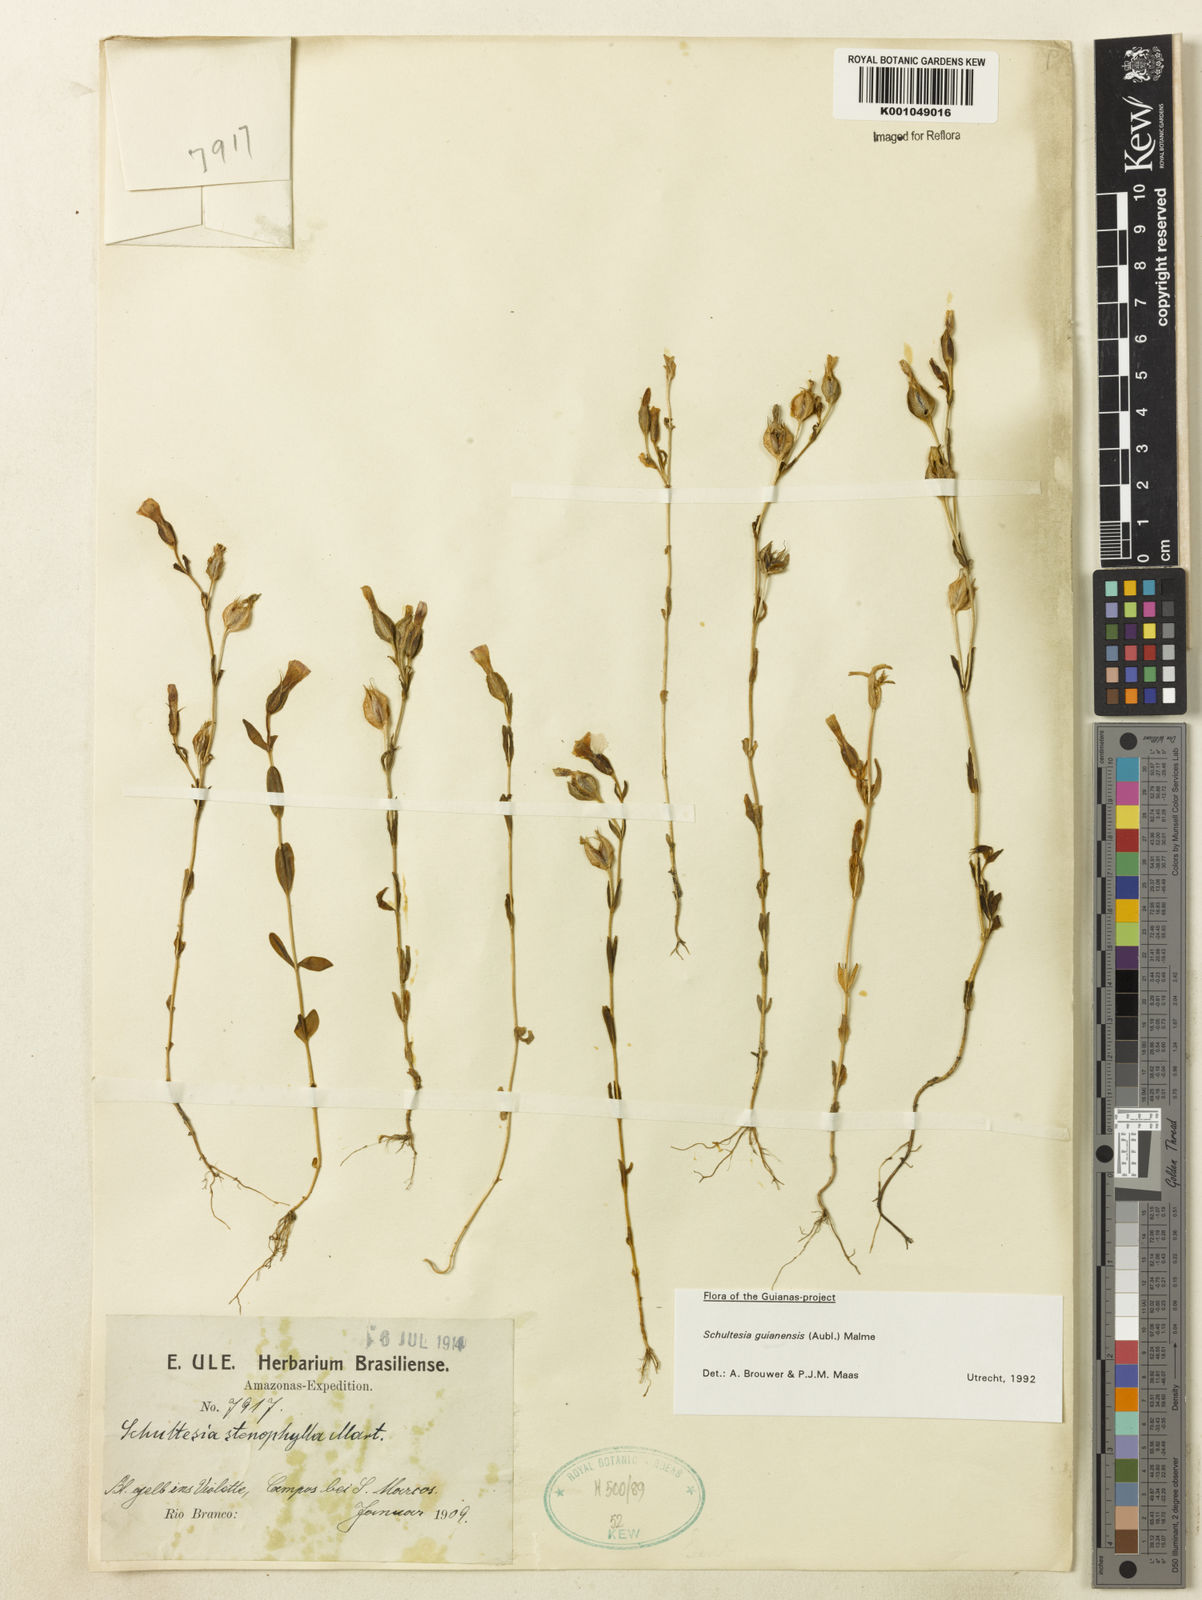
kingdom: Plantae
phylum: Tracheophyta
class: Magnoliopsida
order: Gentianales
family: Gentianaceae
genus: Schultesia
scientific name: Schultesia guianensis
